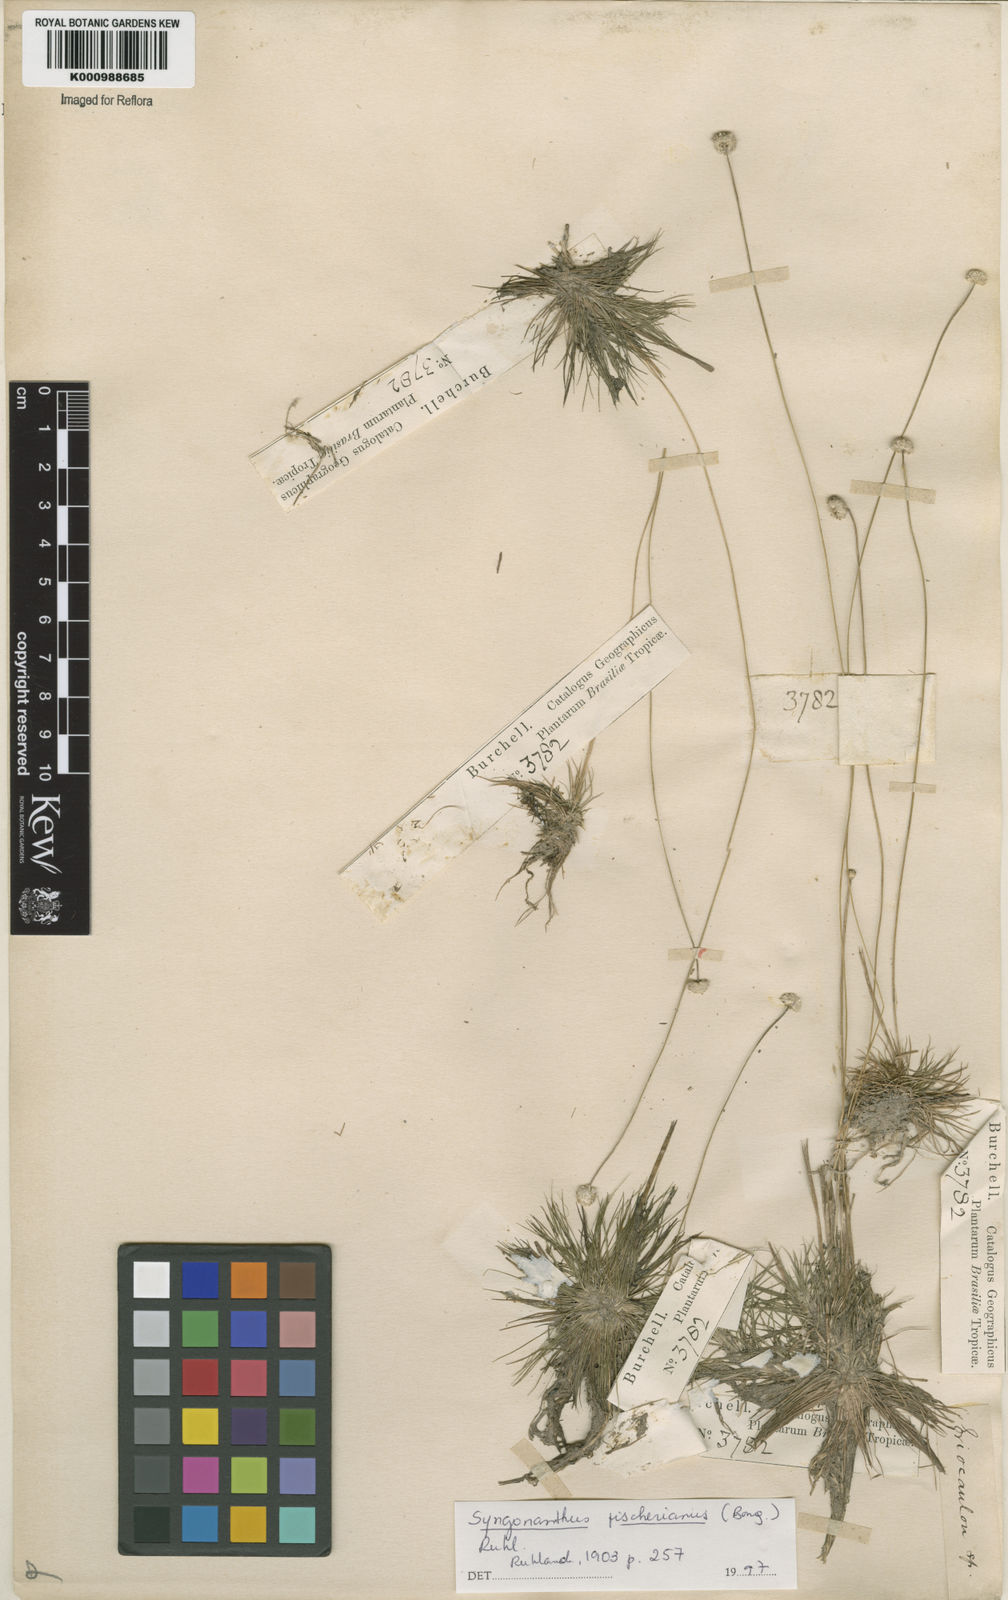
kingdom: Plantae
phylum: Tracheophyta
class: Liliopsida
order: Poales
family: Eriocaulaceae
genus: Syngonanthus
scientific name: Syngonanthus fischerianus
